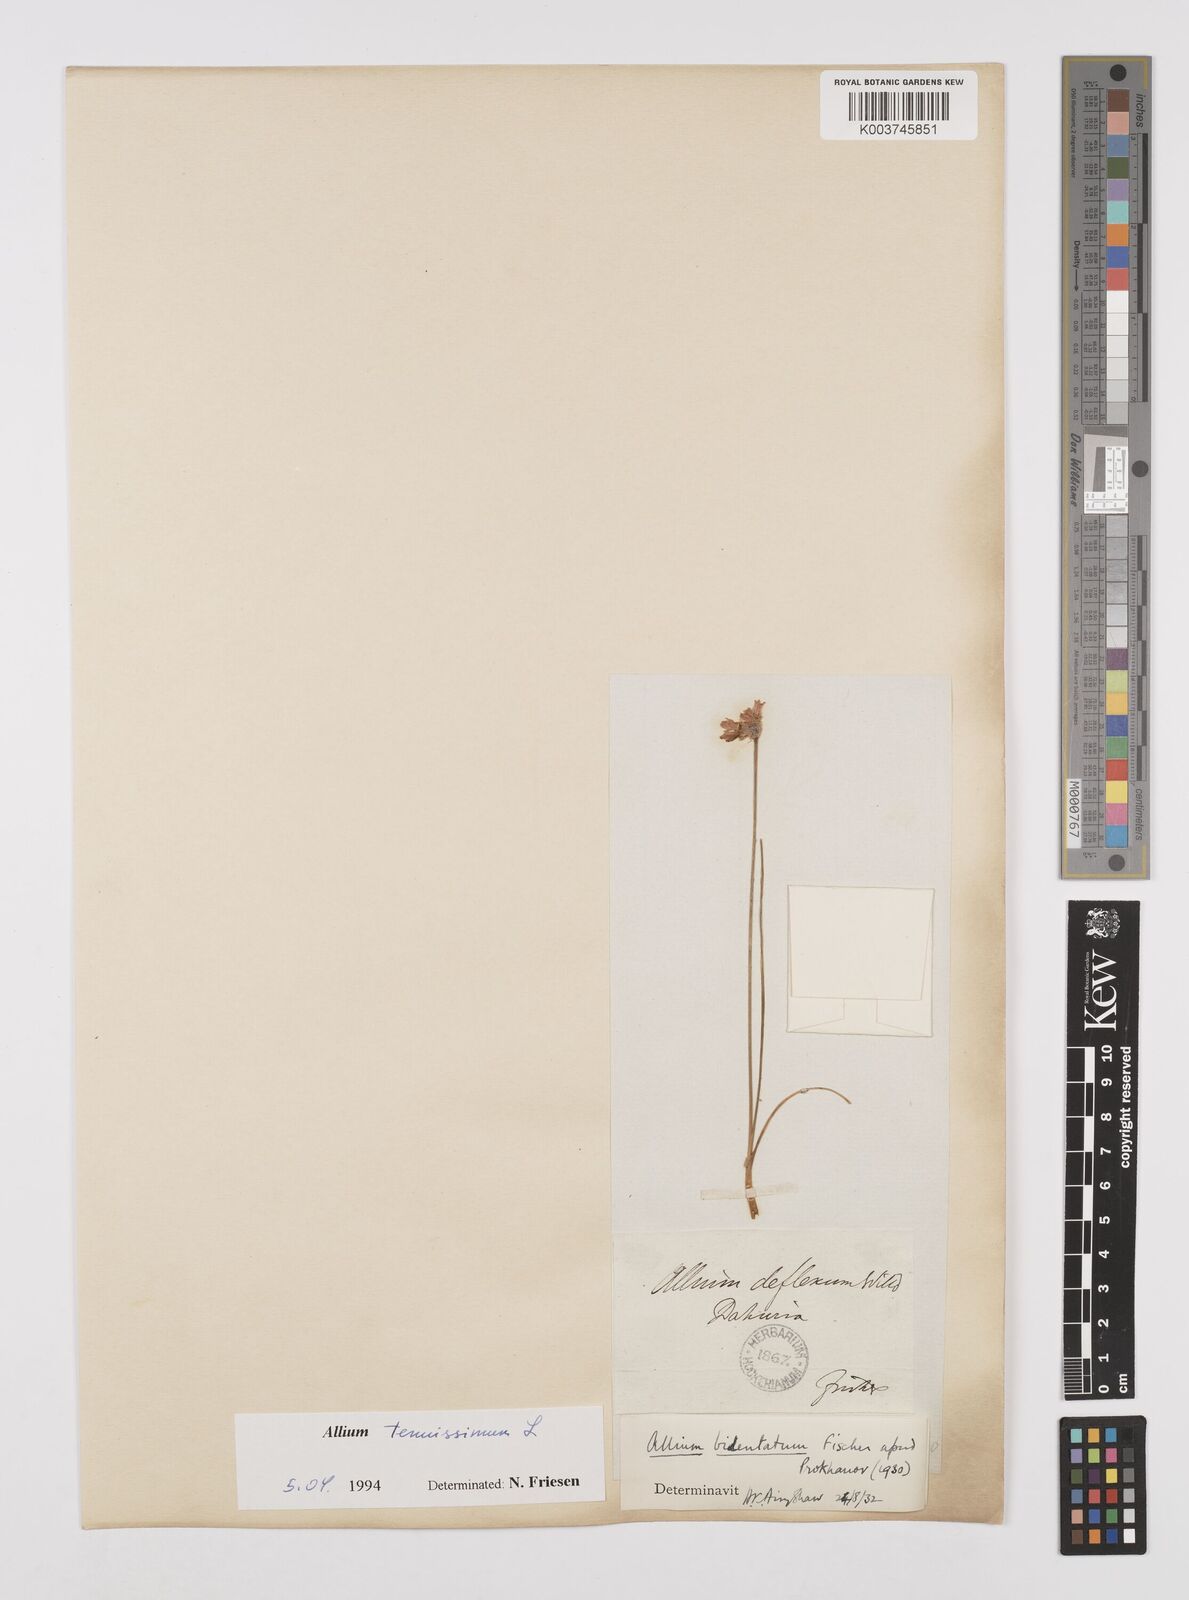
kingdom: Plantae
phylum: Tracheophyta
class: Liliopsida
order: Asparagales
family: Amaryllidaceae
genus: Allium
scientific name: Allium tenuissimum
